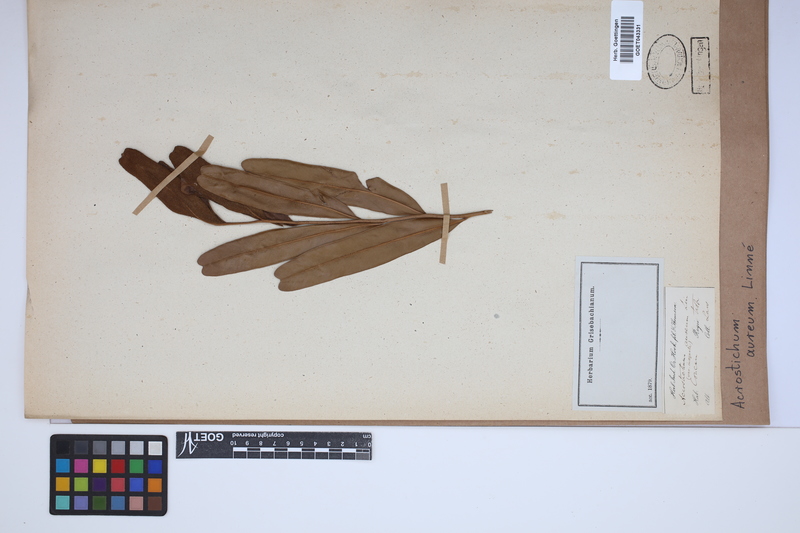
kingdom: Plantae
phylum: Tracheophyta
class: Polypodiopsida
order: Polypodiales
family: Pteridaceae
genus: Acrostichum
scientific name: Acrostichum aureum
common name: Leather fern
